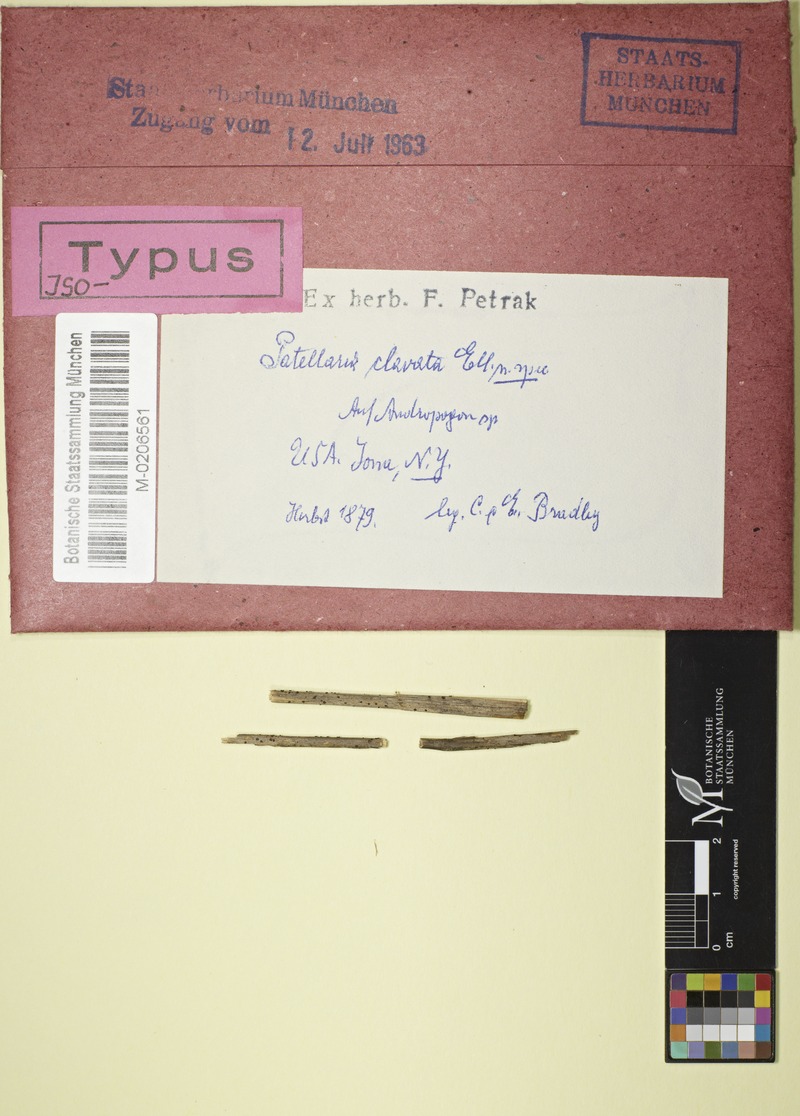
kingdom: Fungi
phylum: Ascomycota
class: Leotiomycetes
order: Helotiales
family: Lachnaceae
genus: Belonidium
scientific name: Belonidium clavatum
